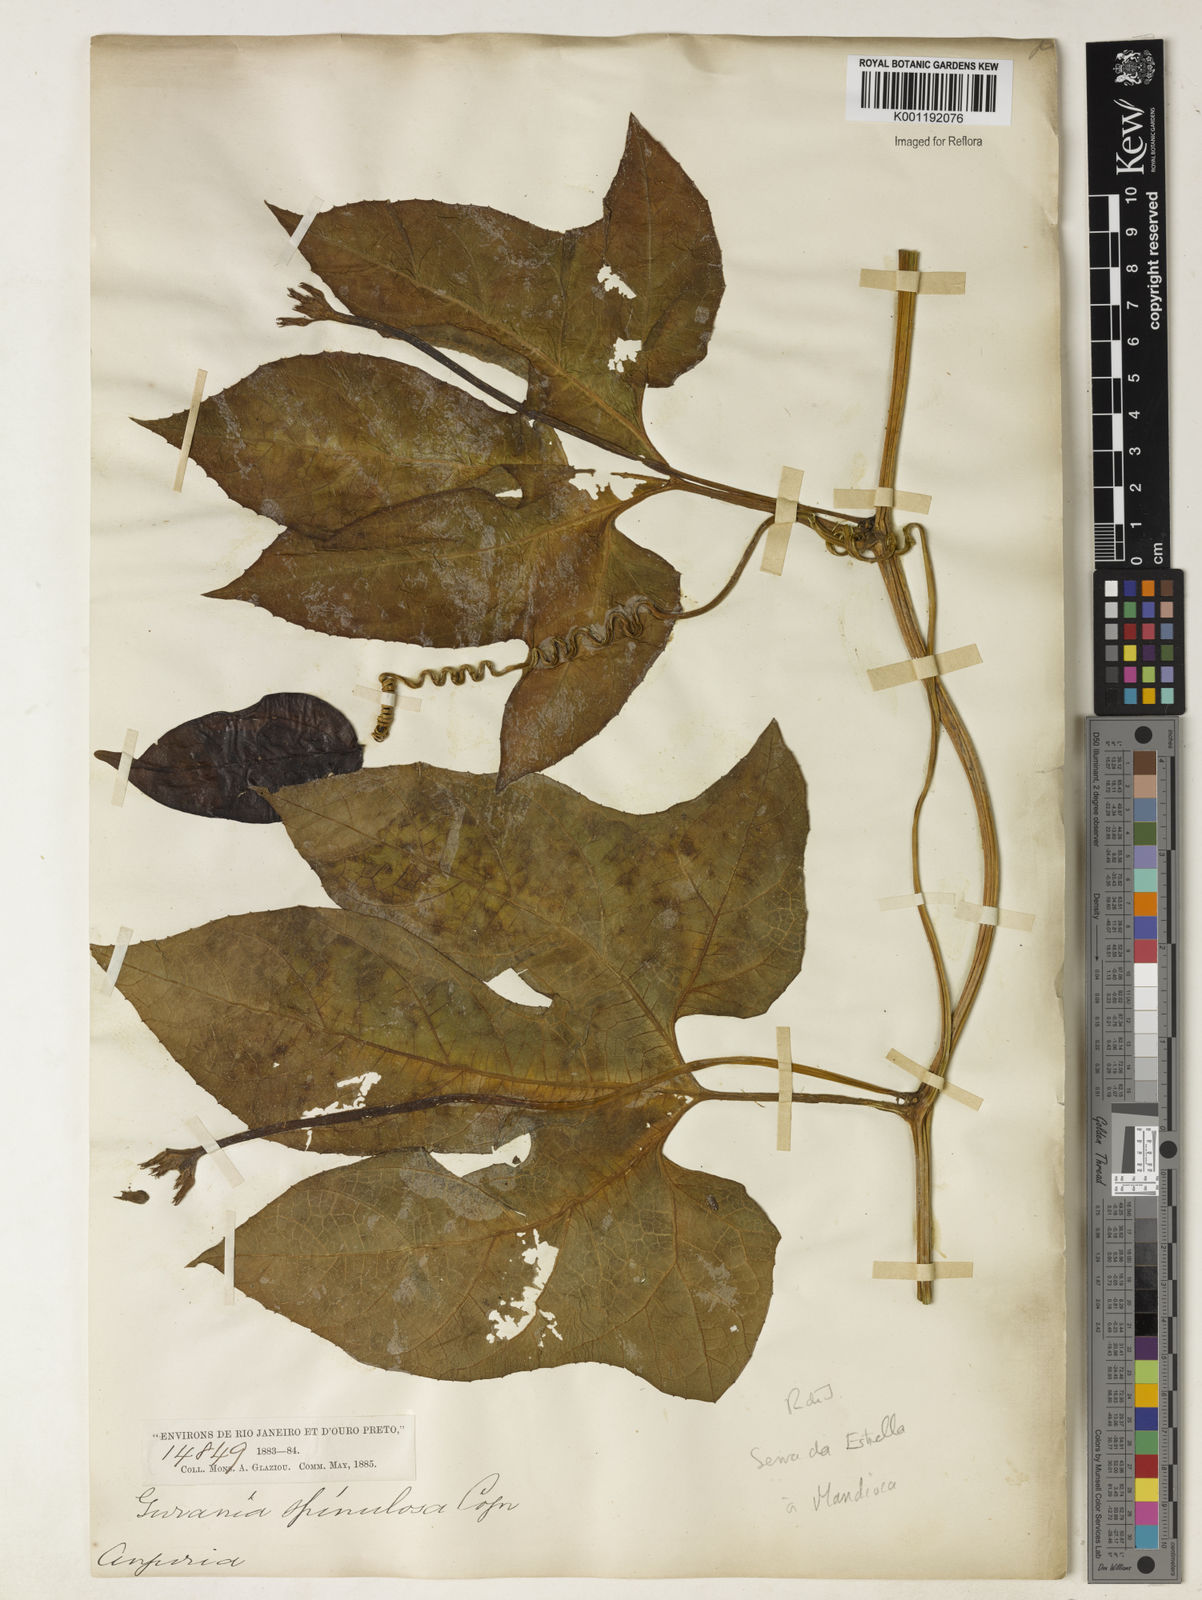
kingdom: Plantae
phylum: Tracheophyta
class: Magnoliopsida
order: Cucurbitales
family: Cucurbitaceae
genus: Gurania
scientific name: Gurania lobata
